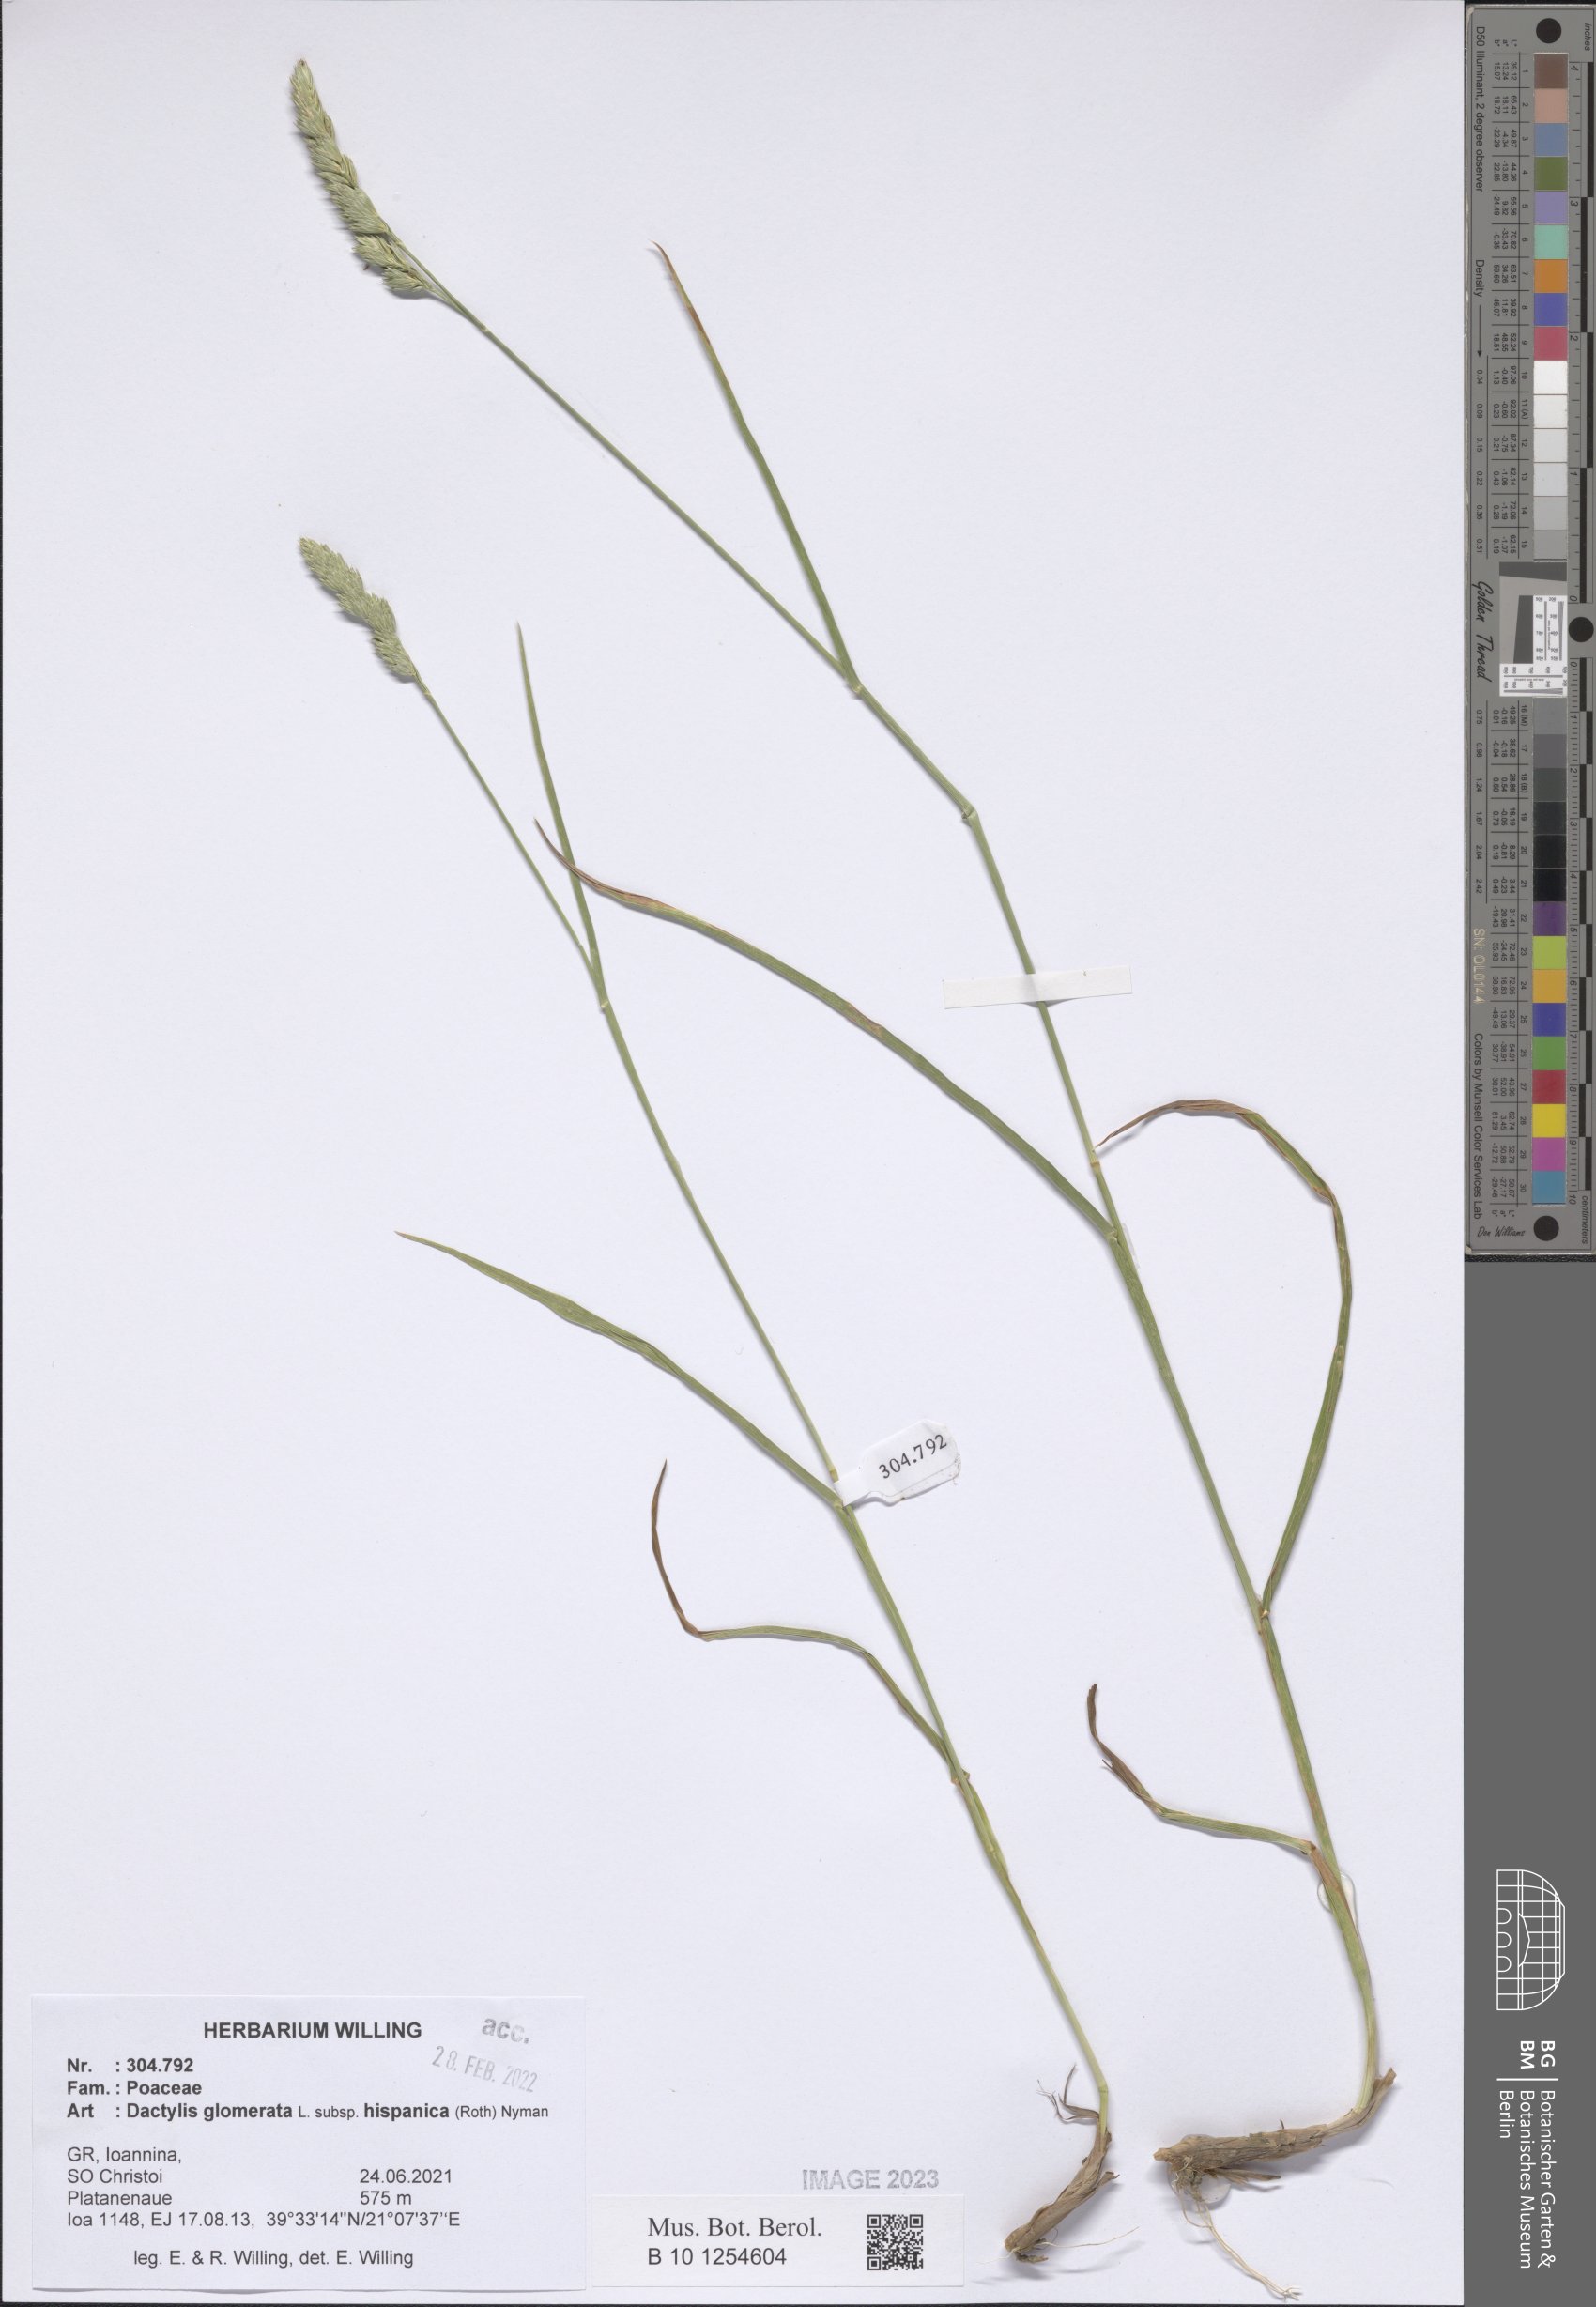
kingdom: Plantae
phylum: Tracheophyta
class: Liliopsida
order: Poales
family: Poaceae
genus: Dactylis
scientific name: Dactylis glomerata
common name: Orchardgrass
